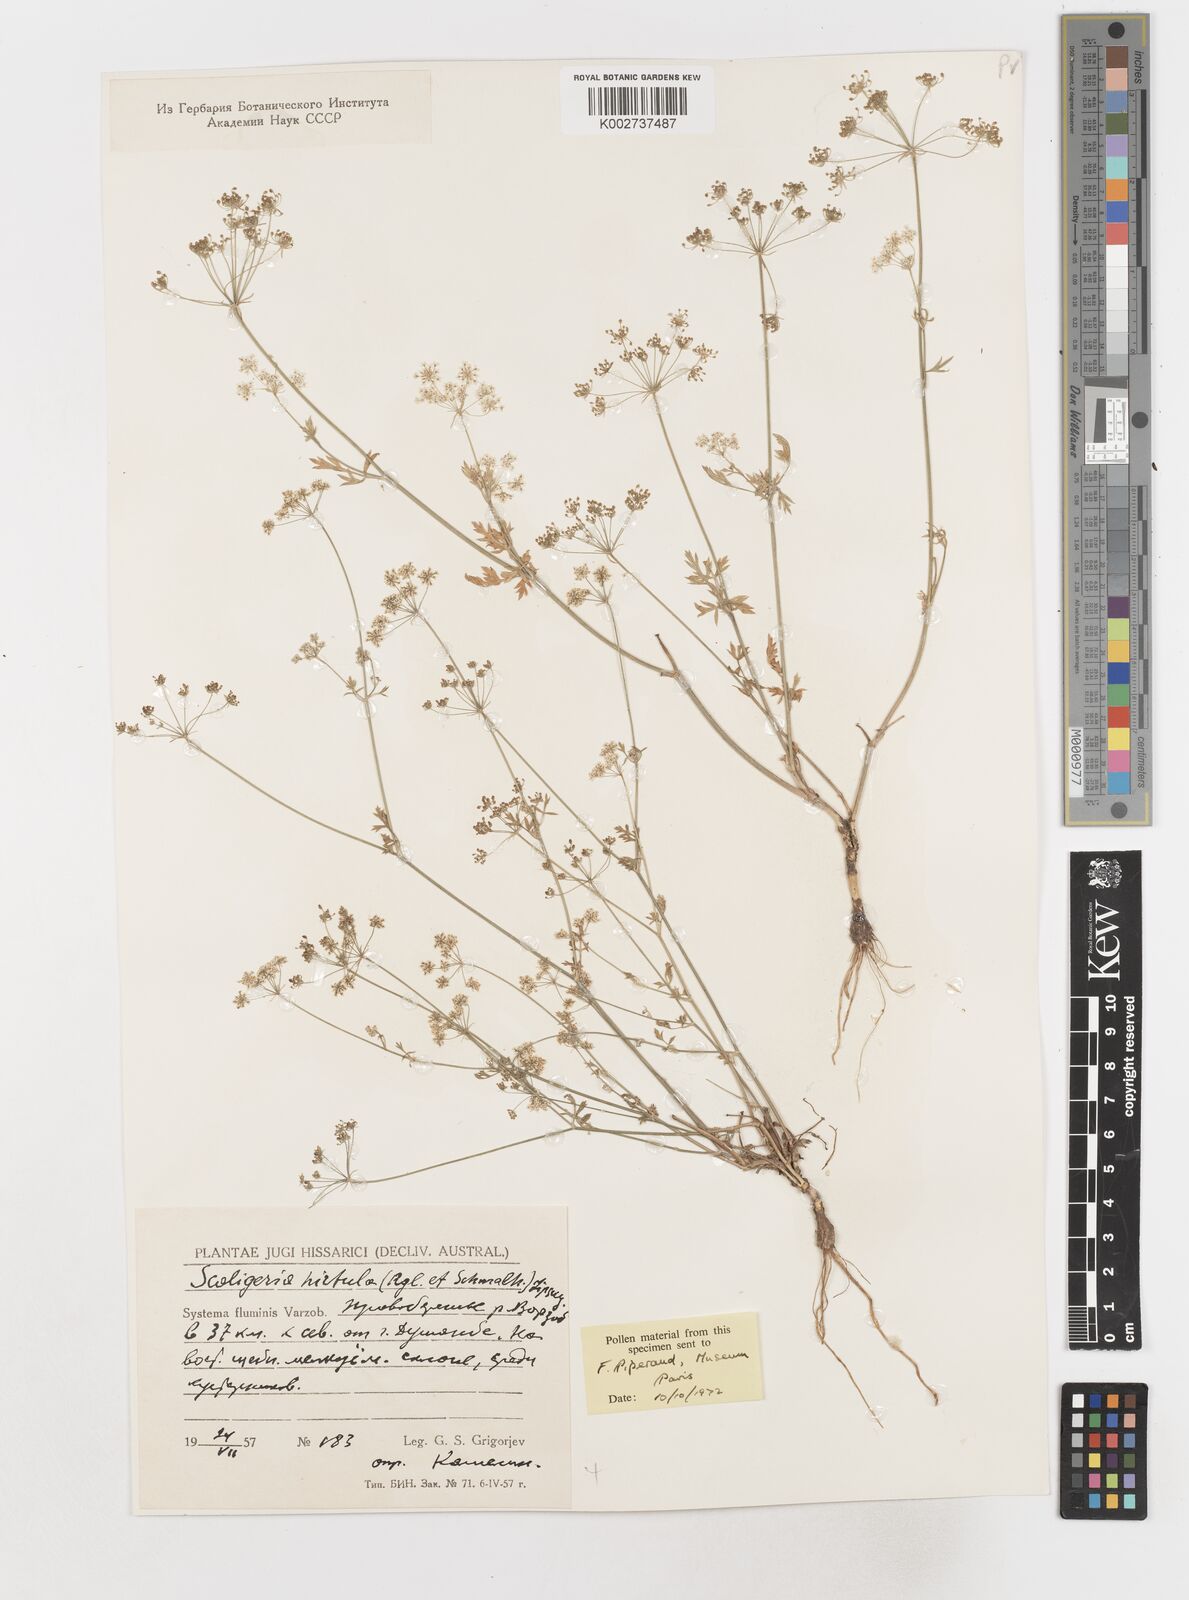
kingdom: Plantae
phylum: Tracheophyta
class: Magnoliopsida
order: Apiales
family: Apiaceae
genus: Scaligeria
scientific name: Scaligeria hirtula
